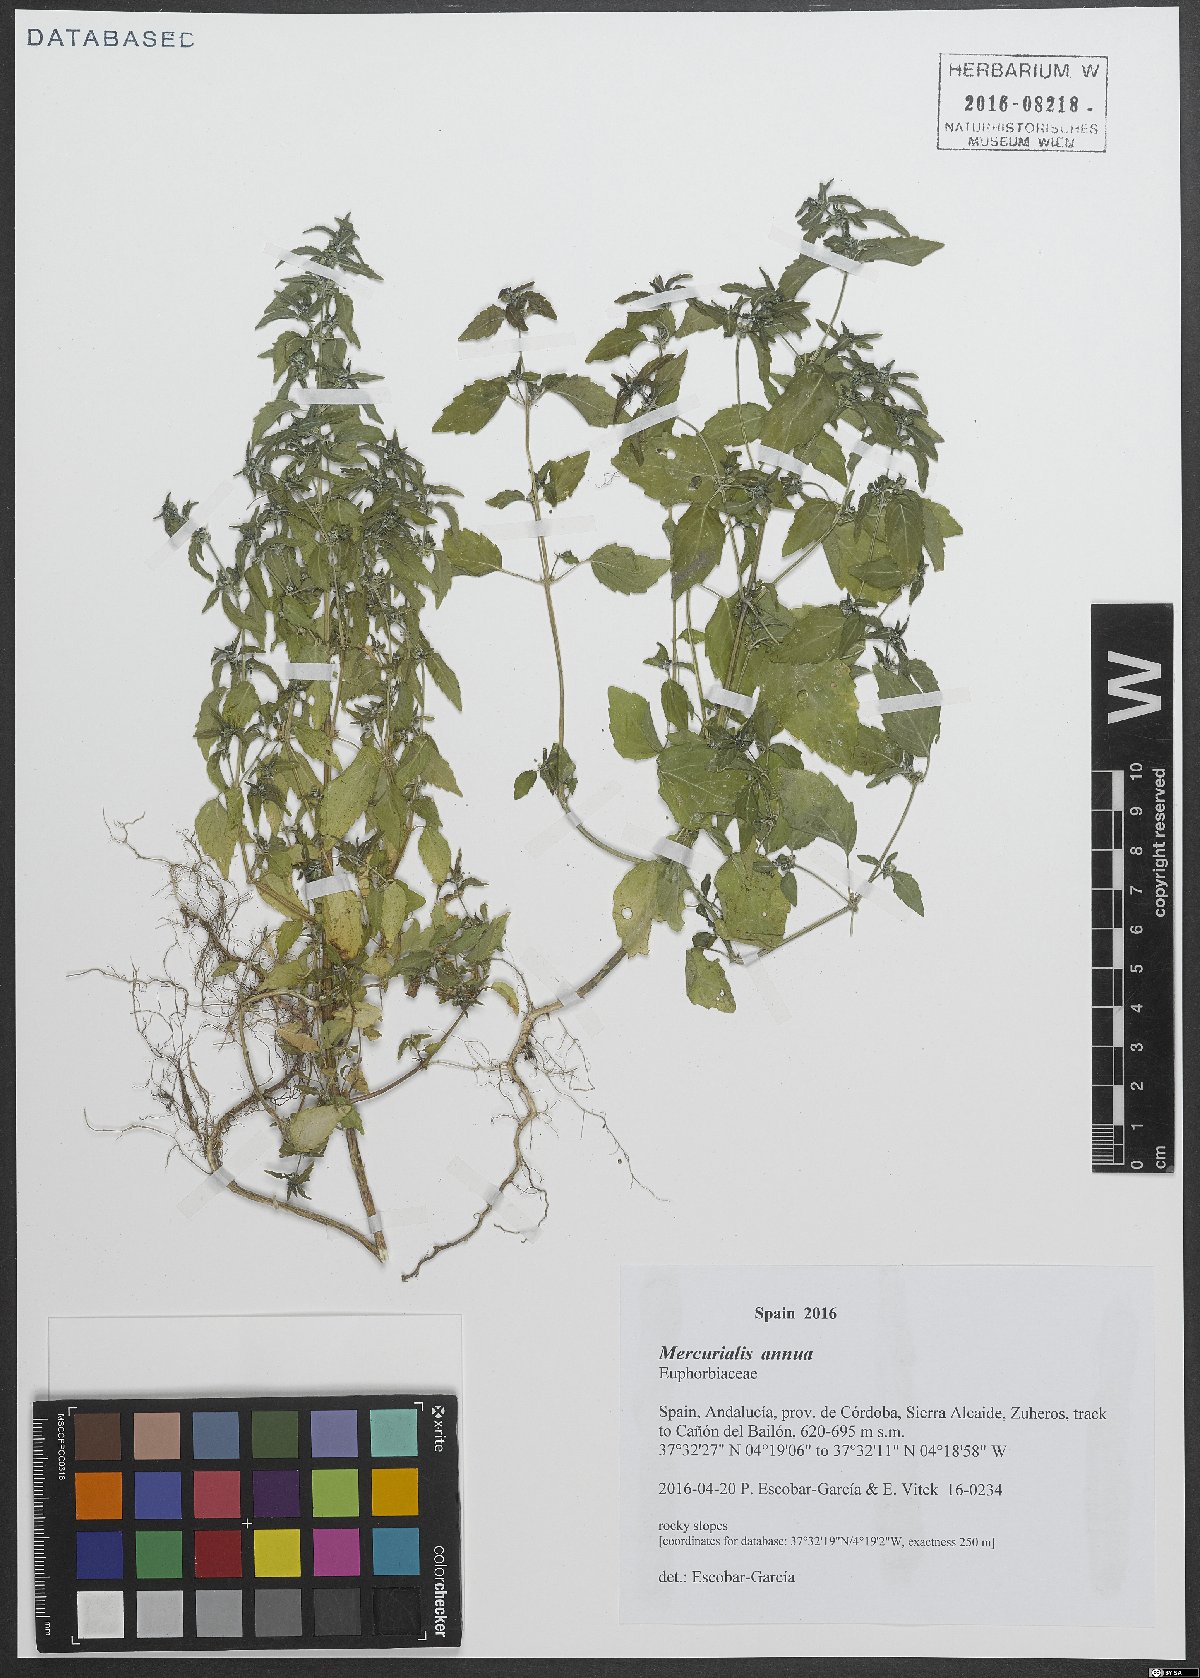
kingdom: Plantae
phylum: Tracheophyta
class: Magnoliopsida
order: Malpighiales
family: Euphorbiaceae
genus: Mercurialis
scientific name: Mercurialis annua
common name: Annual mercury
